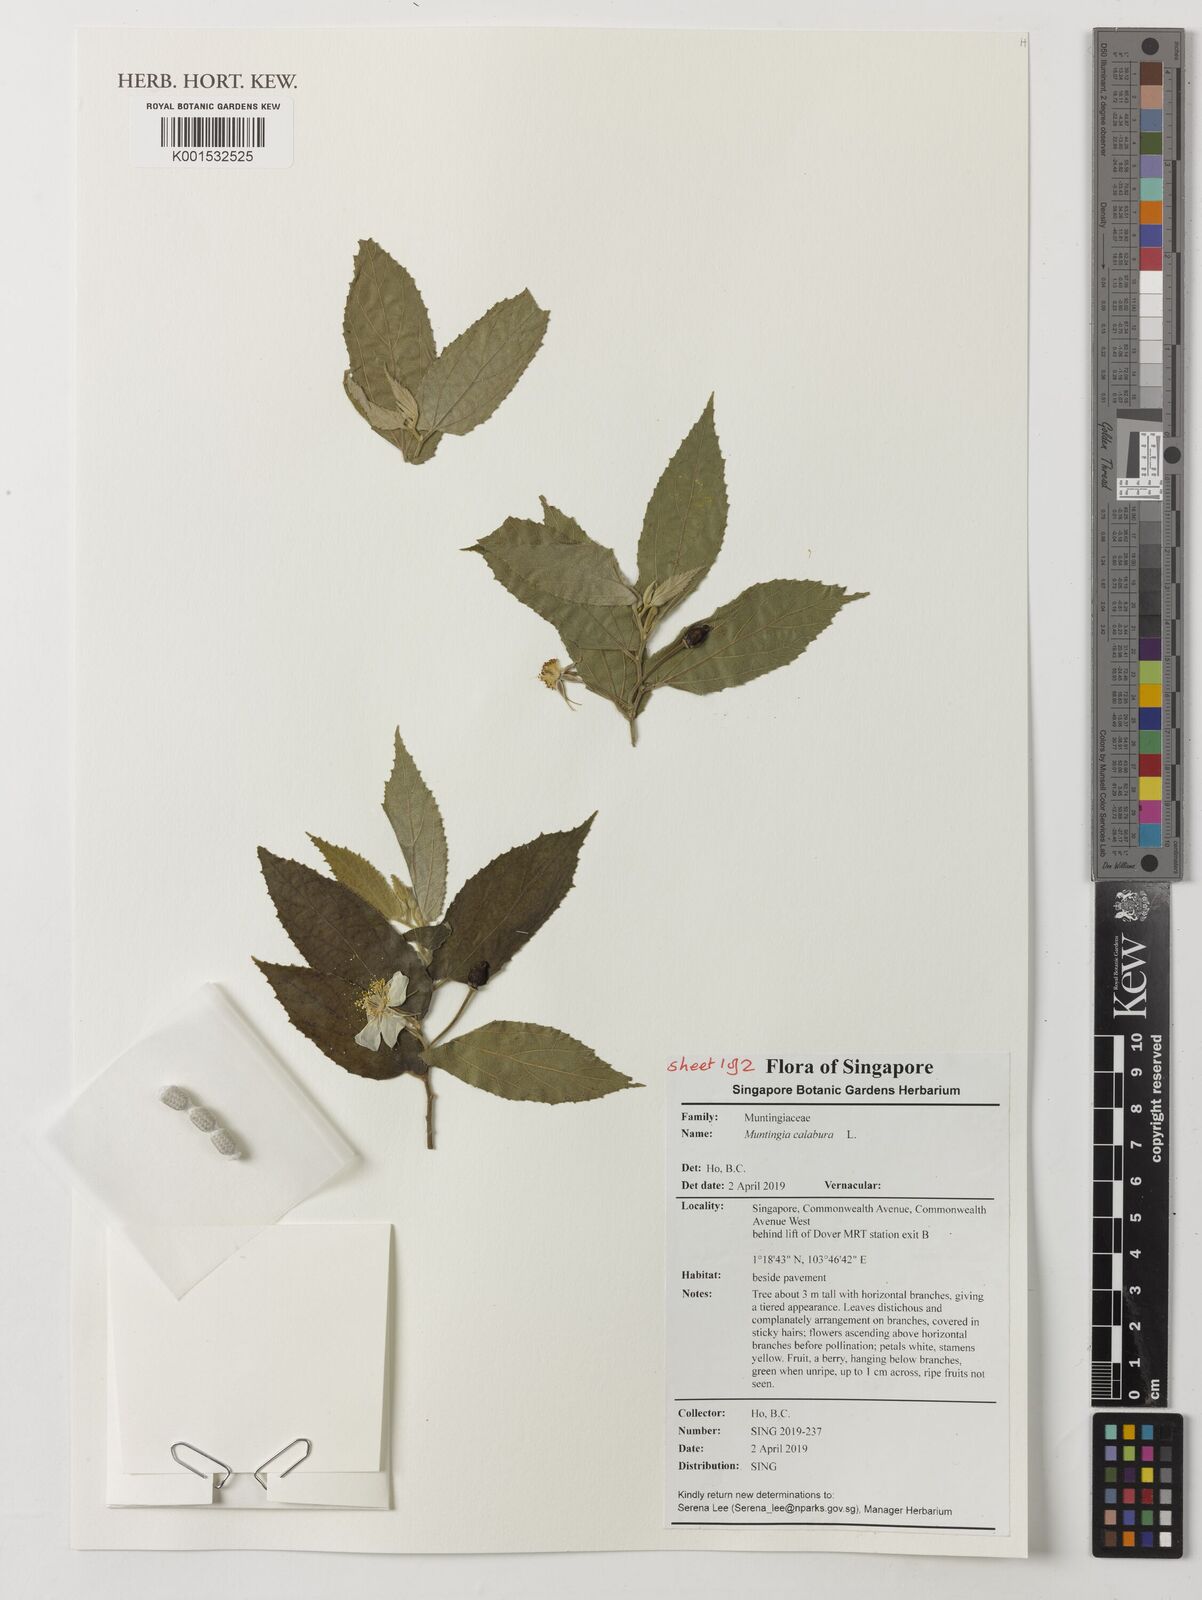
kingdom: Plantae
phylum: Tracheophyta
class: Magnoliopsida
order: Malvales
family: Muntingiaceae
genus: Muntingia
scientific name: Muntingia calabura
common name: Strawberrytree
